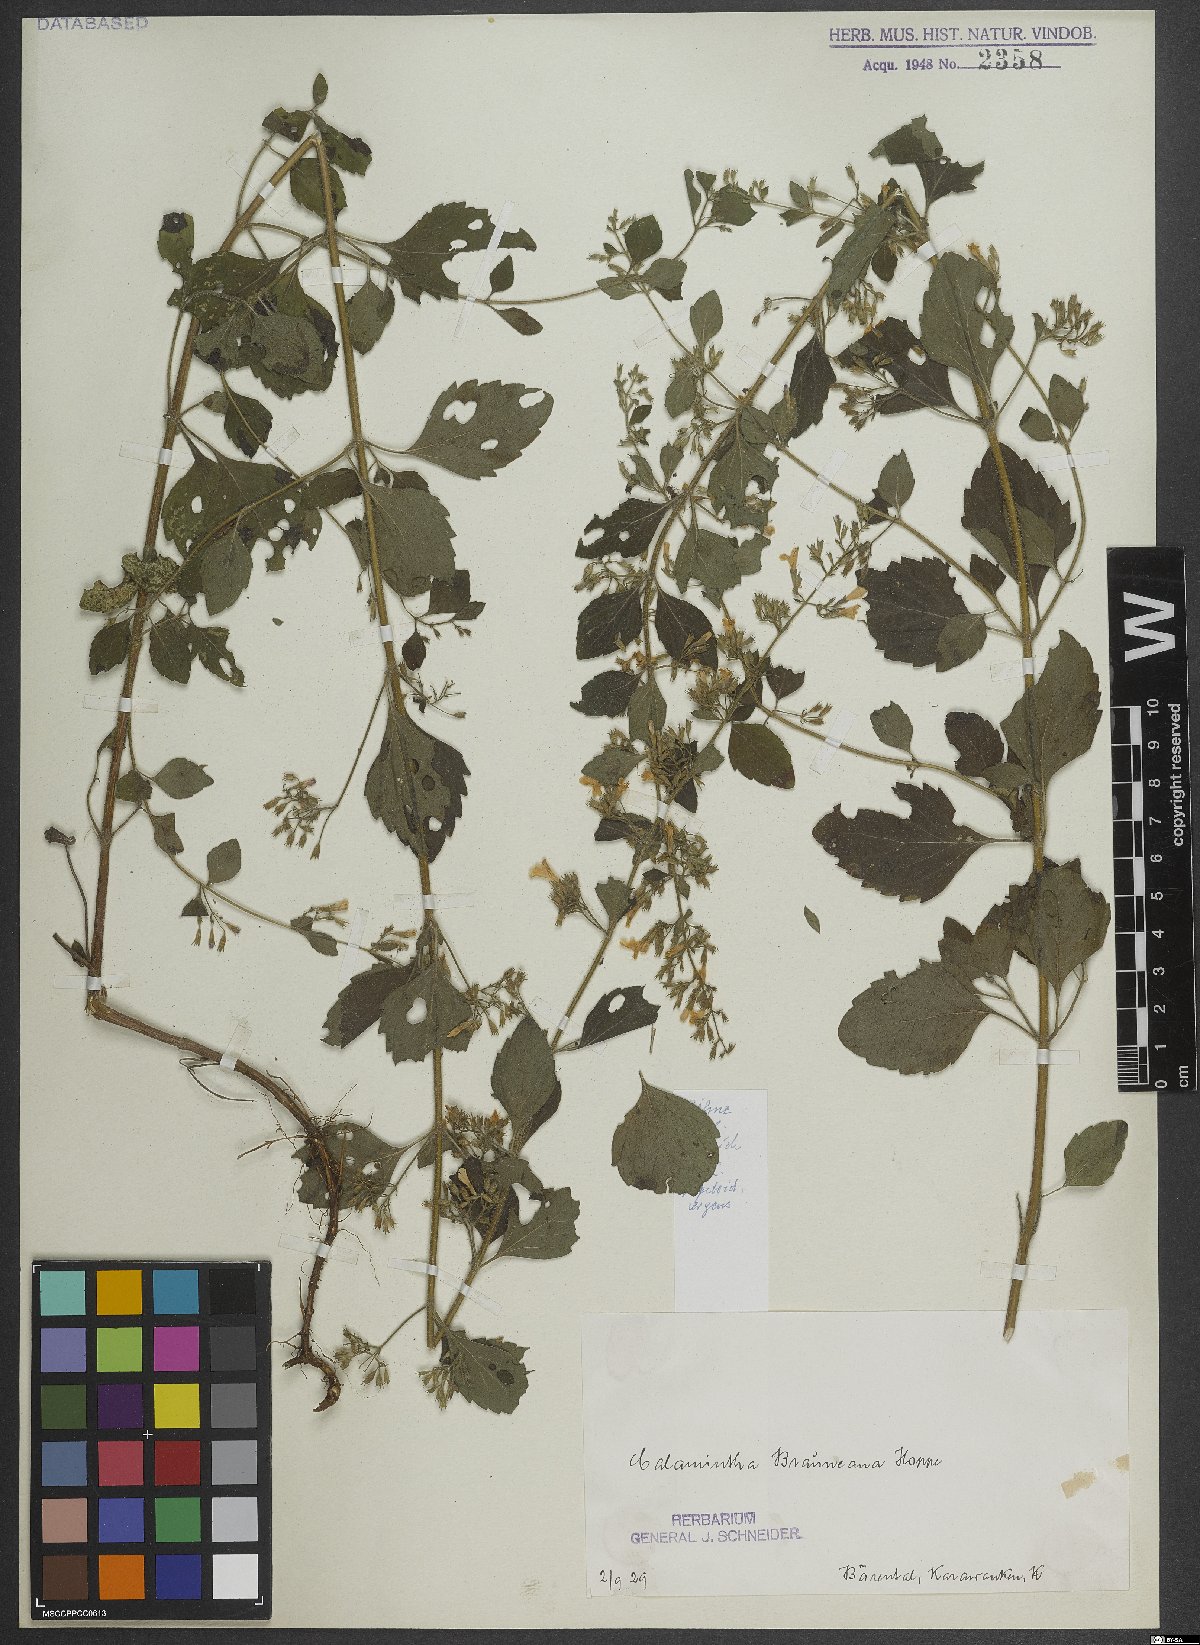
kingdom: Plantae
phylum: Tracheophyta
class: Magnoliopsida
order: Lamiales
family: Lamiaceae
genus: Clinopodium
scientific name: Clinopodium nepeta
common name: Lesser calamint
